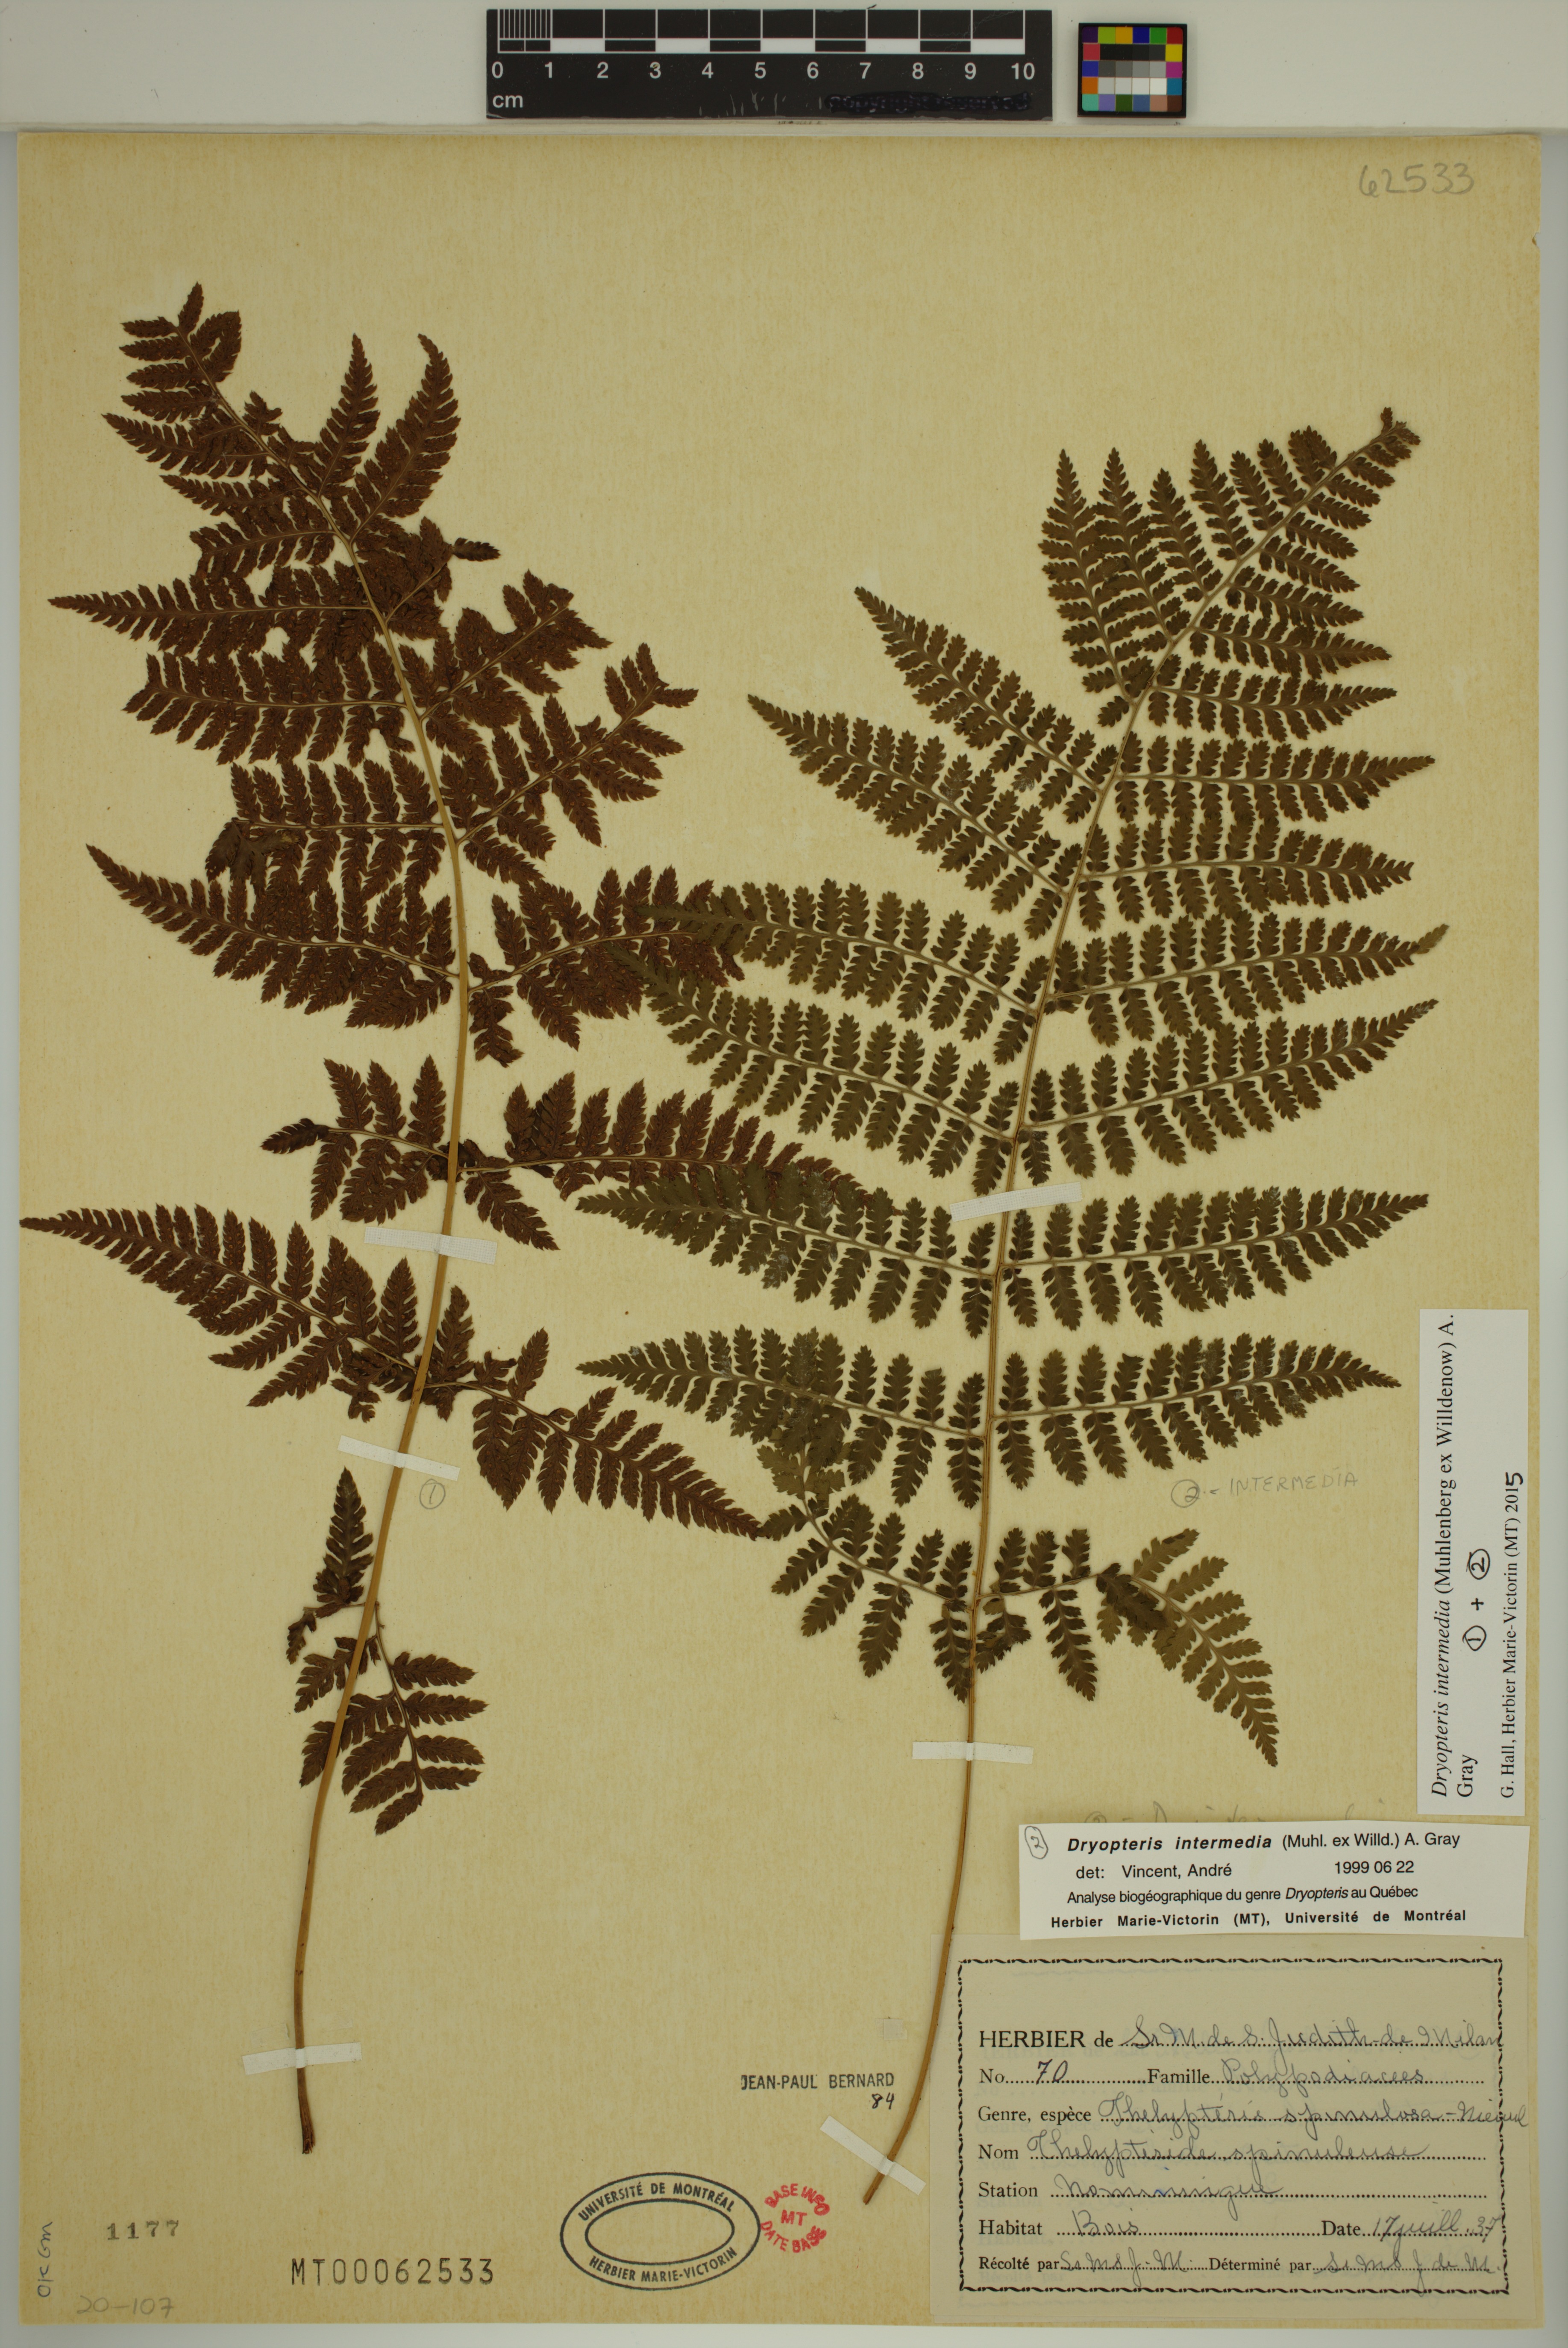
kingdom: Plantae
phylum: Tracheophyta
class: Polypodiopsida
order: Polypodiales
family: Dryopteridaceae
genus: Dryopteris
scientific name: Dryopteris intermedia
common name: Evergreen wood fern
